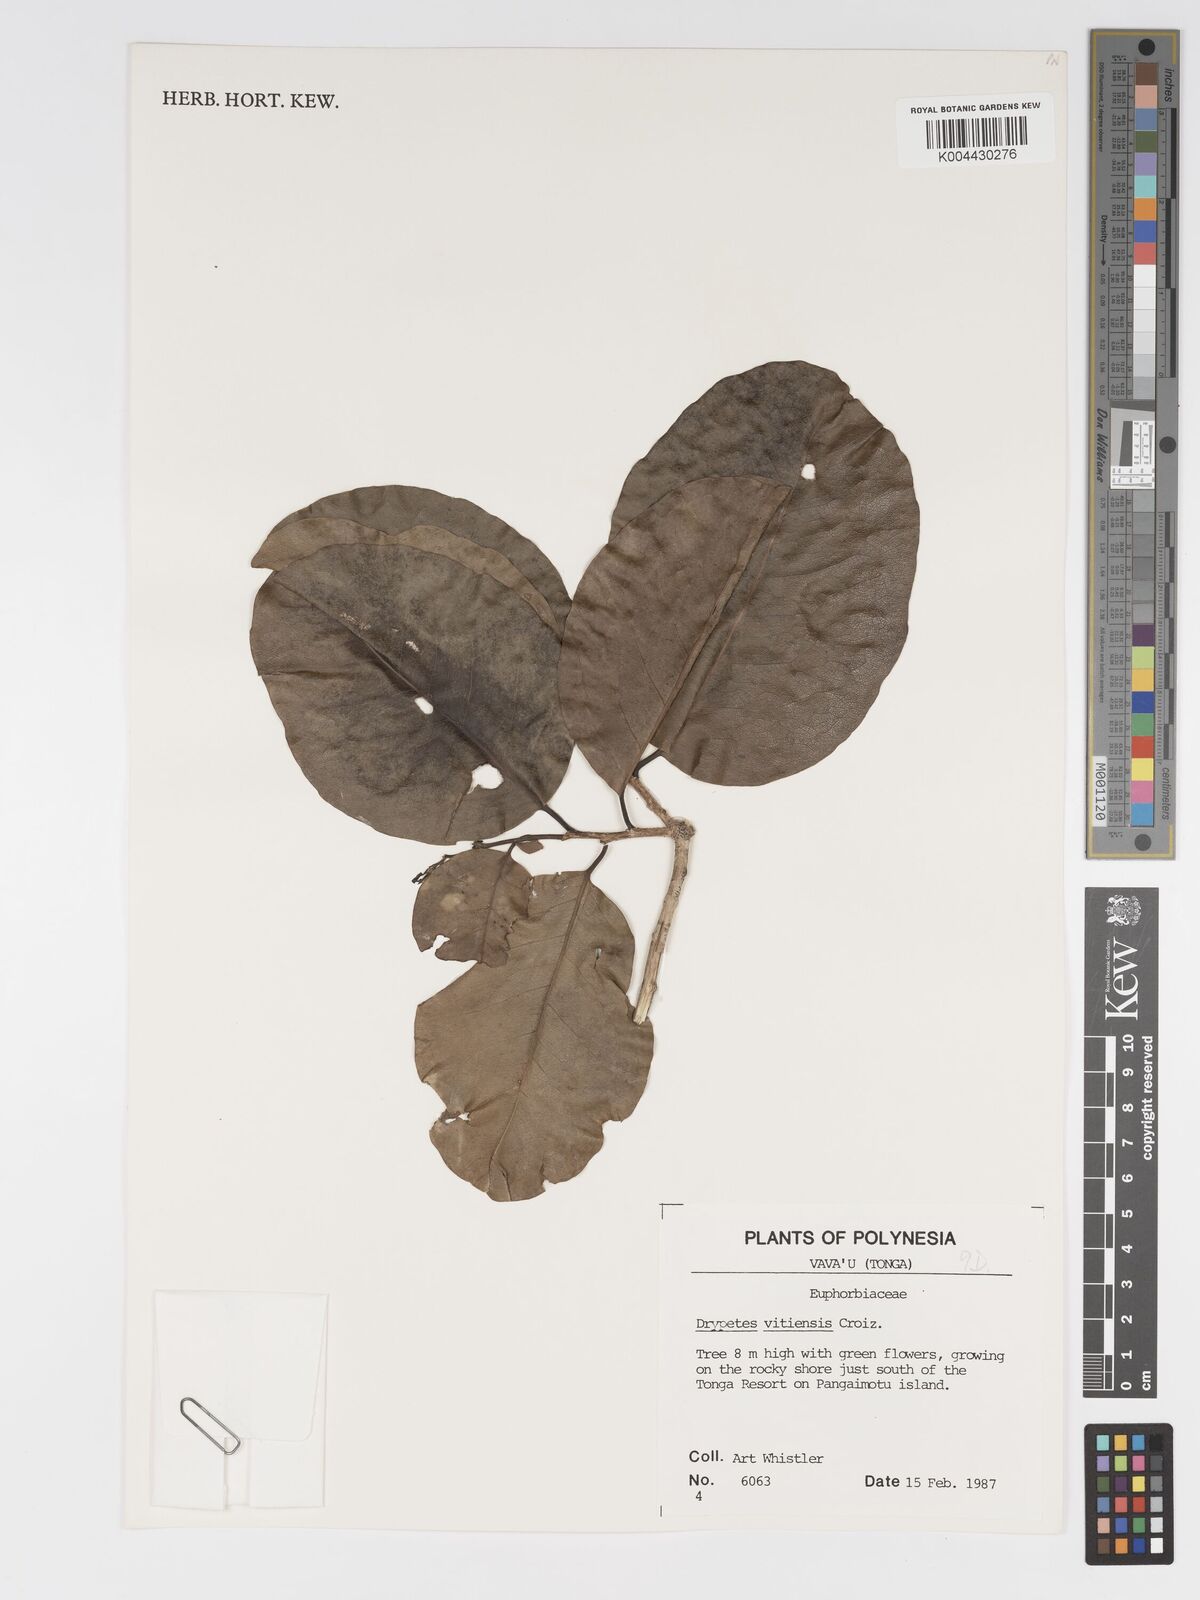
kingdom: Plantae
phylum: Tracheophyta
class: Magnoliopsida
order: Malpighiales
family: Putranjivaceae
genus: Drypetes
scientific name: Drypetes vitiensis
